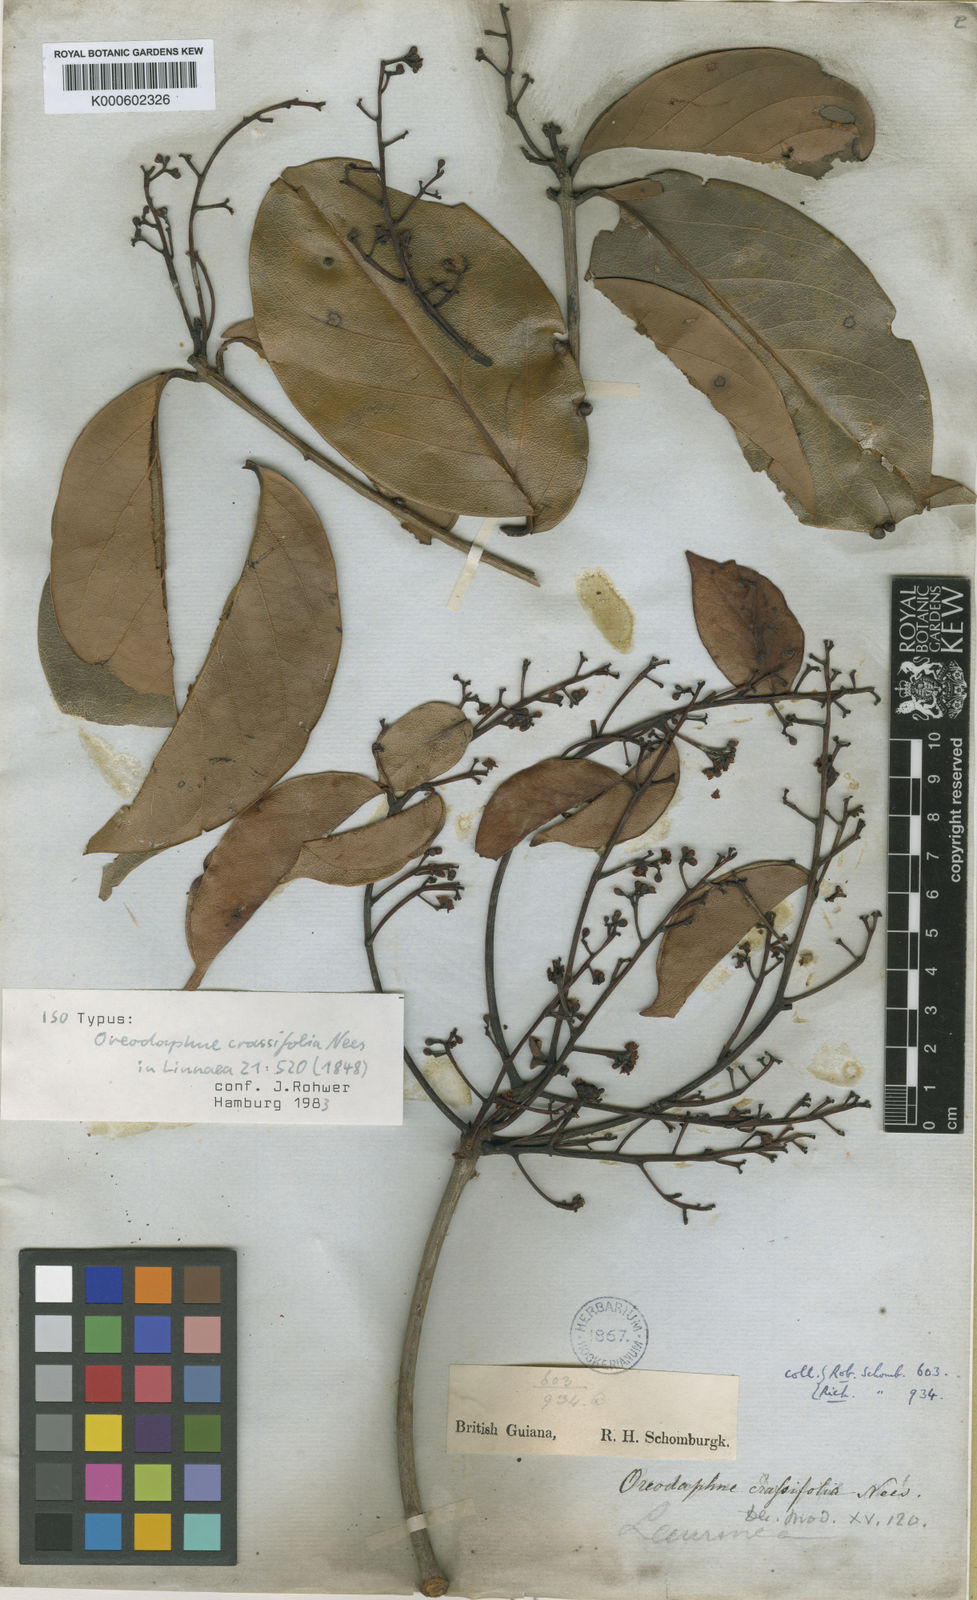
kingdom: Plantae
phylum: Tracheophyta
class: Magnoliopsida
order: Laurales
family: Lauraceae
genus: Ocotea
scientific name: Ocotea crassifolia
